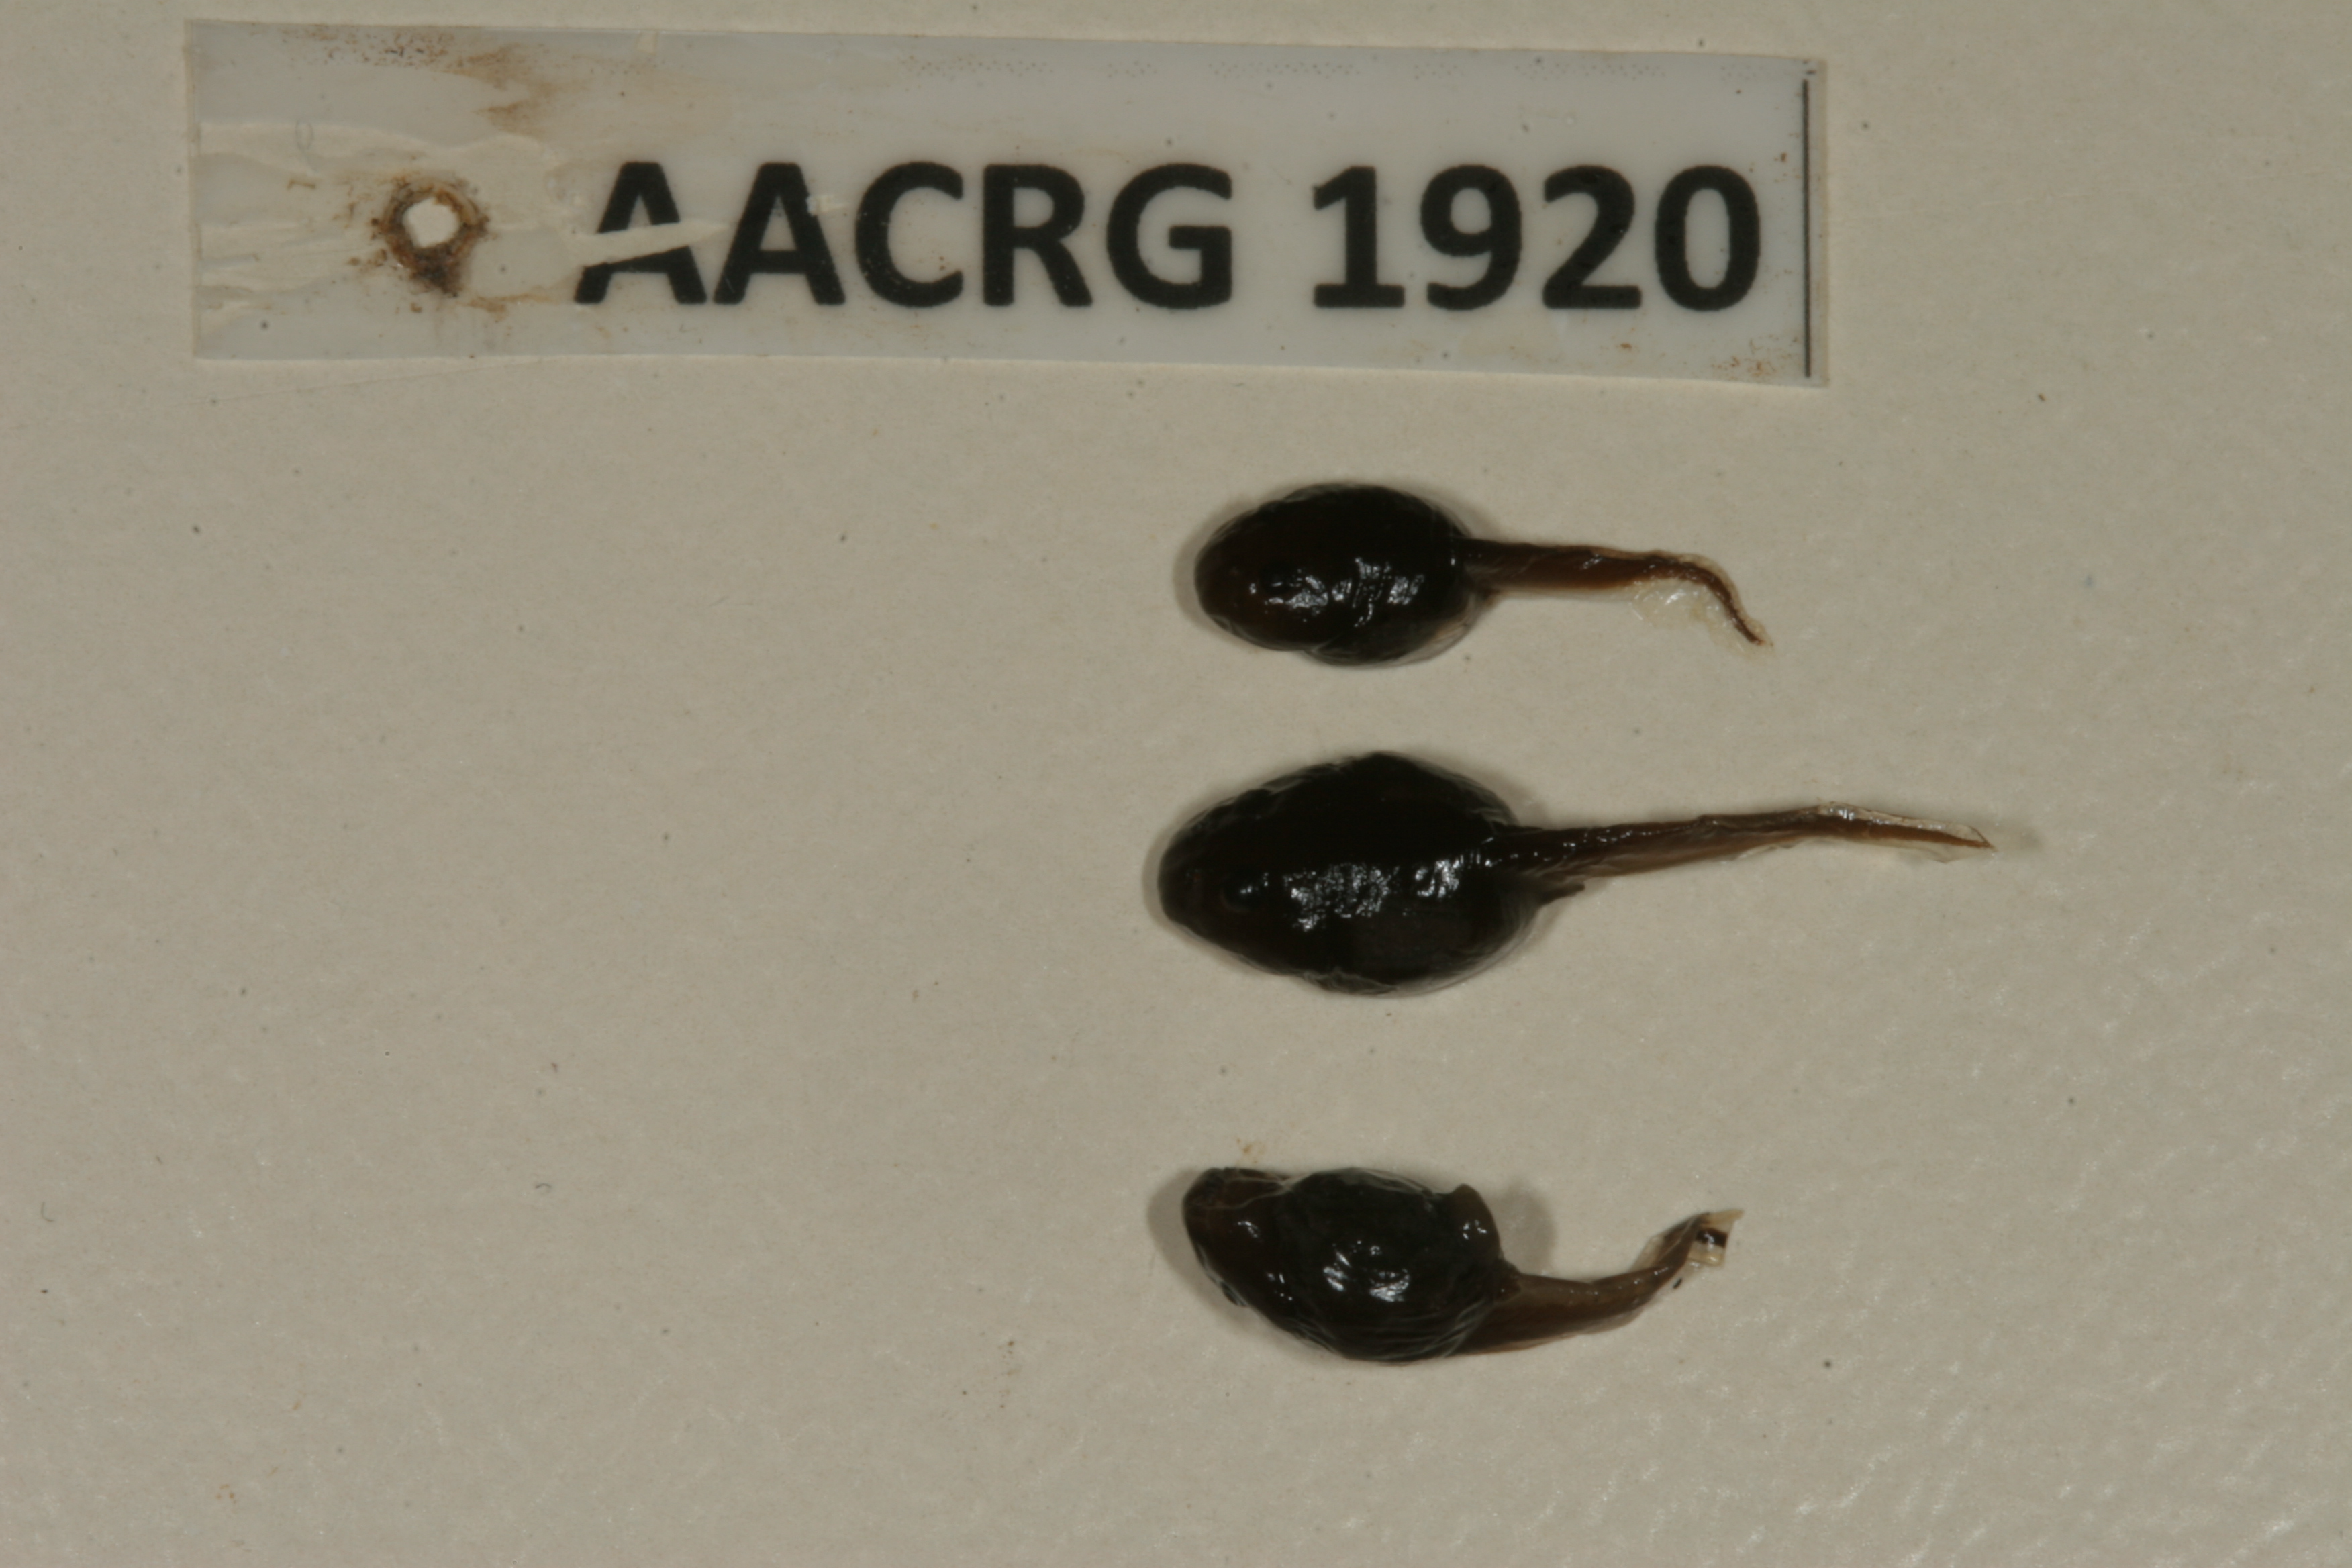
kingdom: Animalia
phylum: Chordata
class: Amphibia
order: Anura
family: Bufonidae
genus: Sclerophrys
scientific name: Sclerophrys poweri
